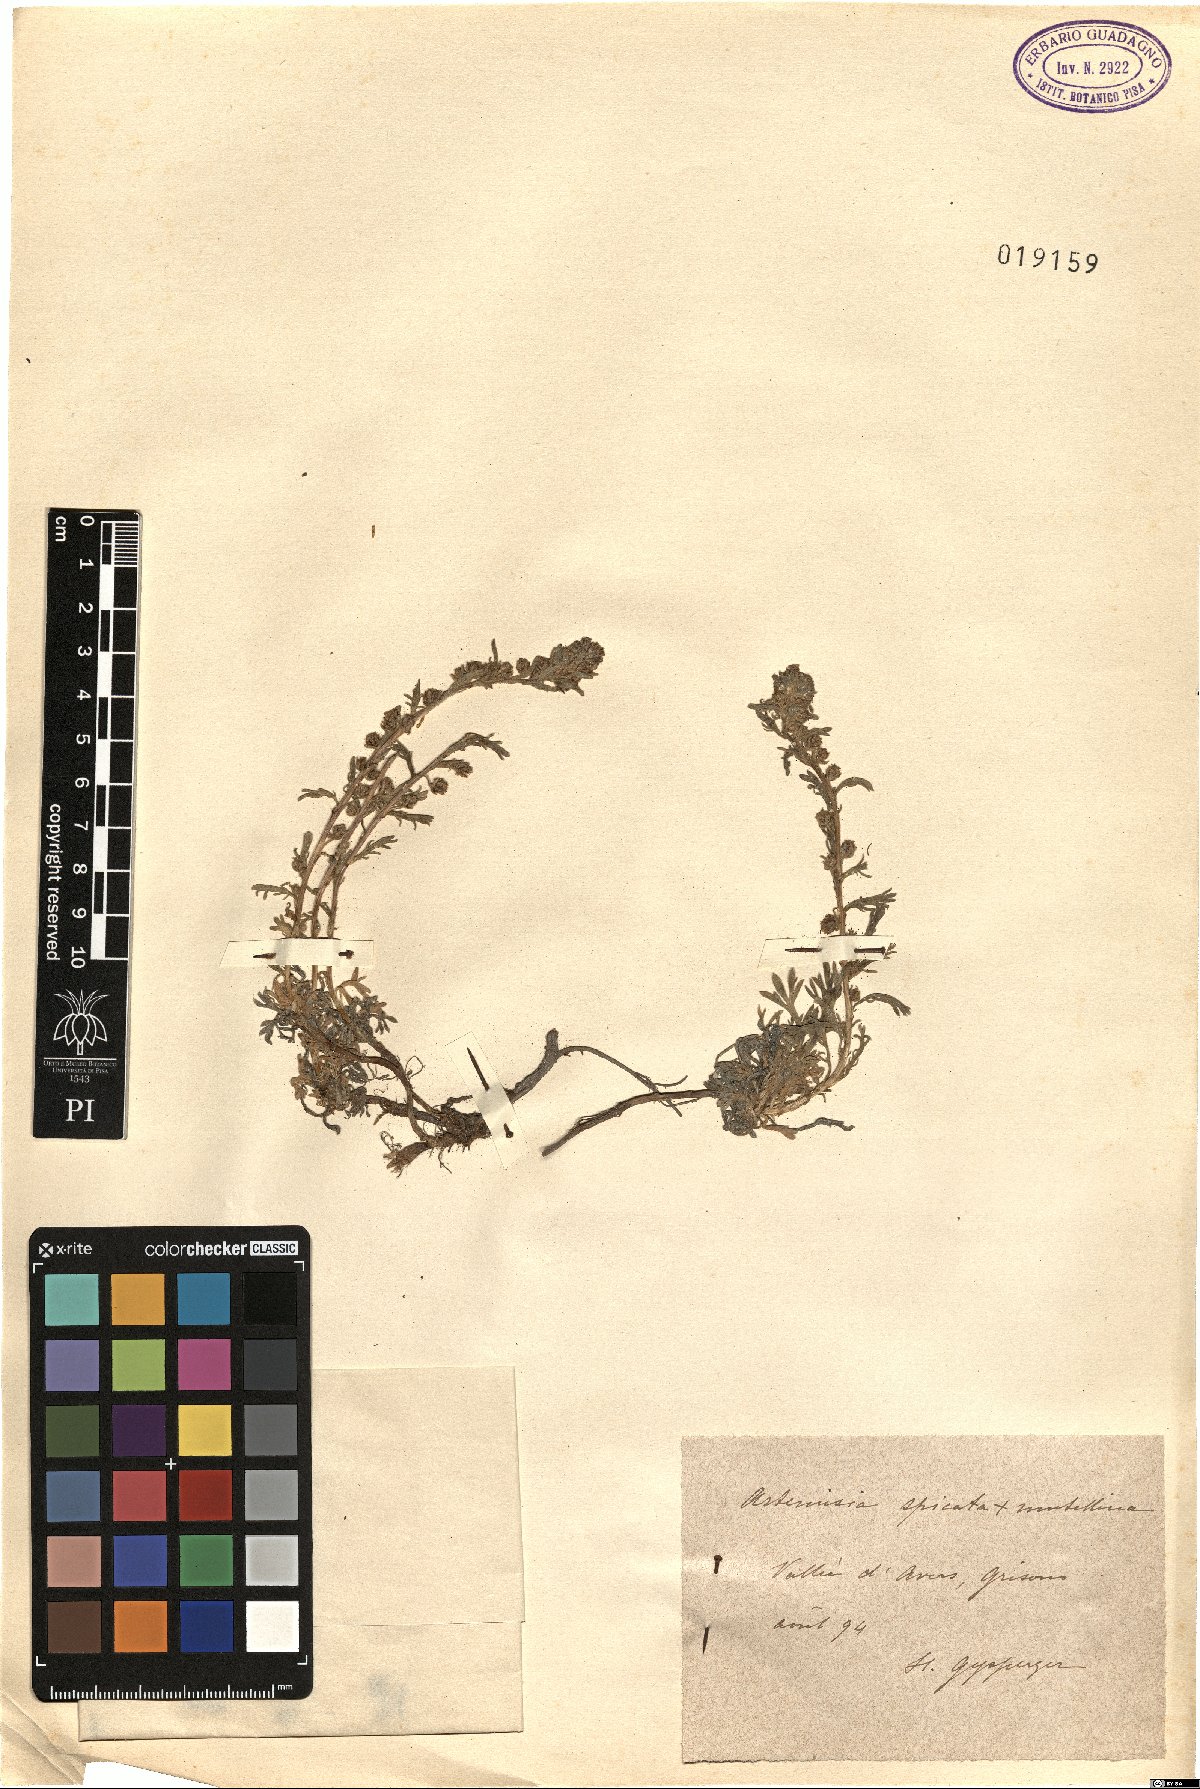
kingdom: Plantae
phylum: Tracheophyta
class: Magnoliopsida
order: Asterales
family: Asteraceae
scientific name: Asteraceae
